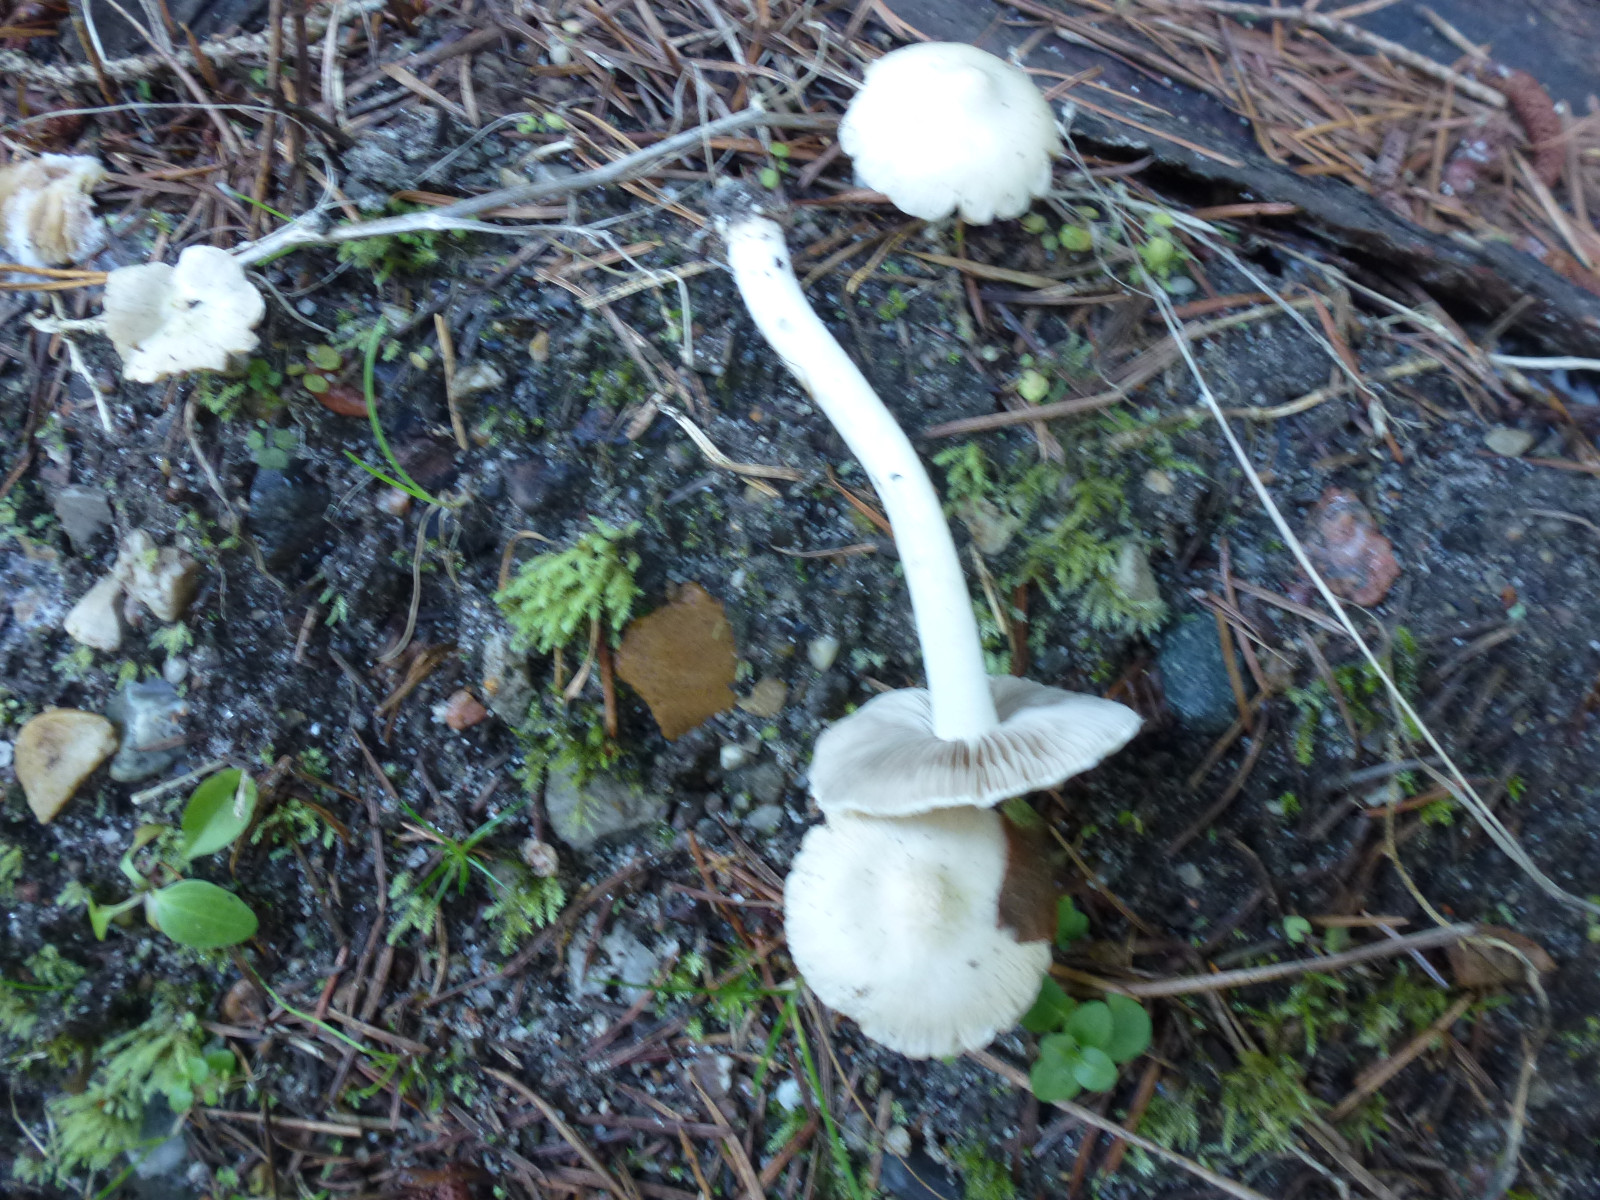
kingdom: Fungi
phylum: Basidiomycota
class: Agaricomycetes
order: Agaricales
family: Inocybaceae
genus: Inocybe
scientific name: Inocybe
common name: almindelig trævlhat
